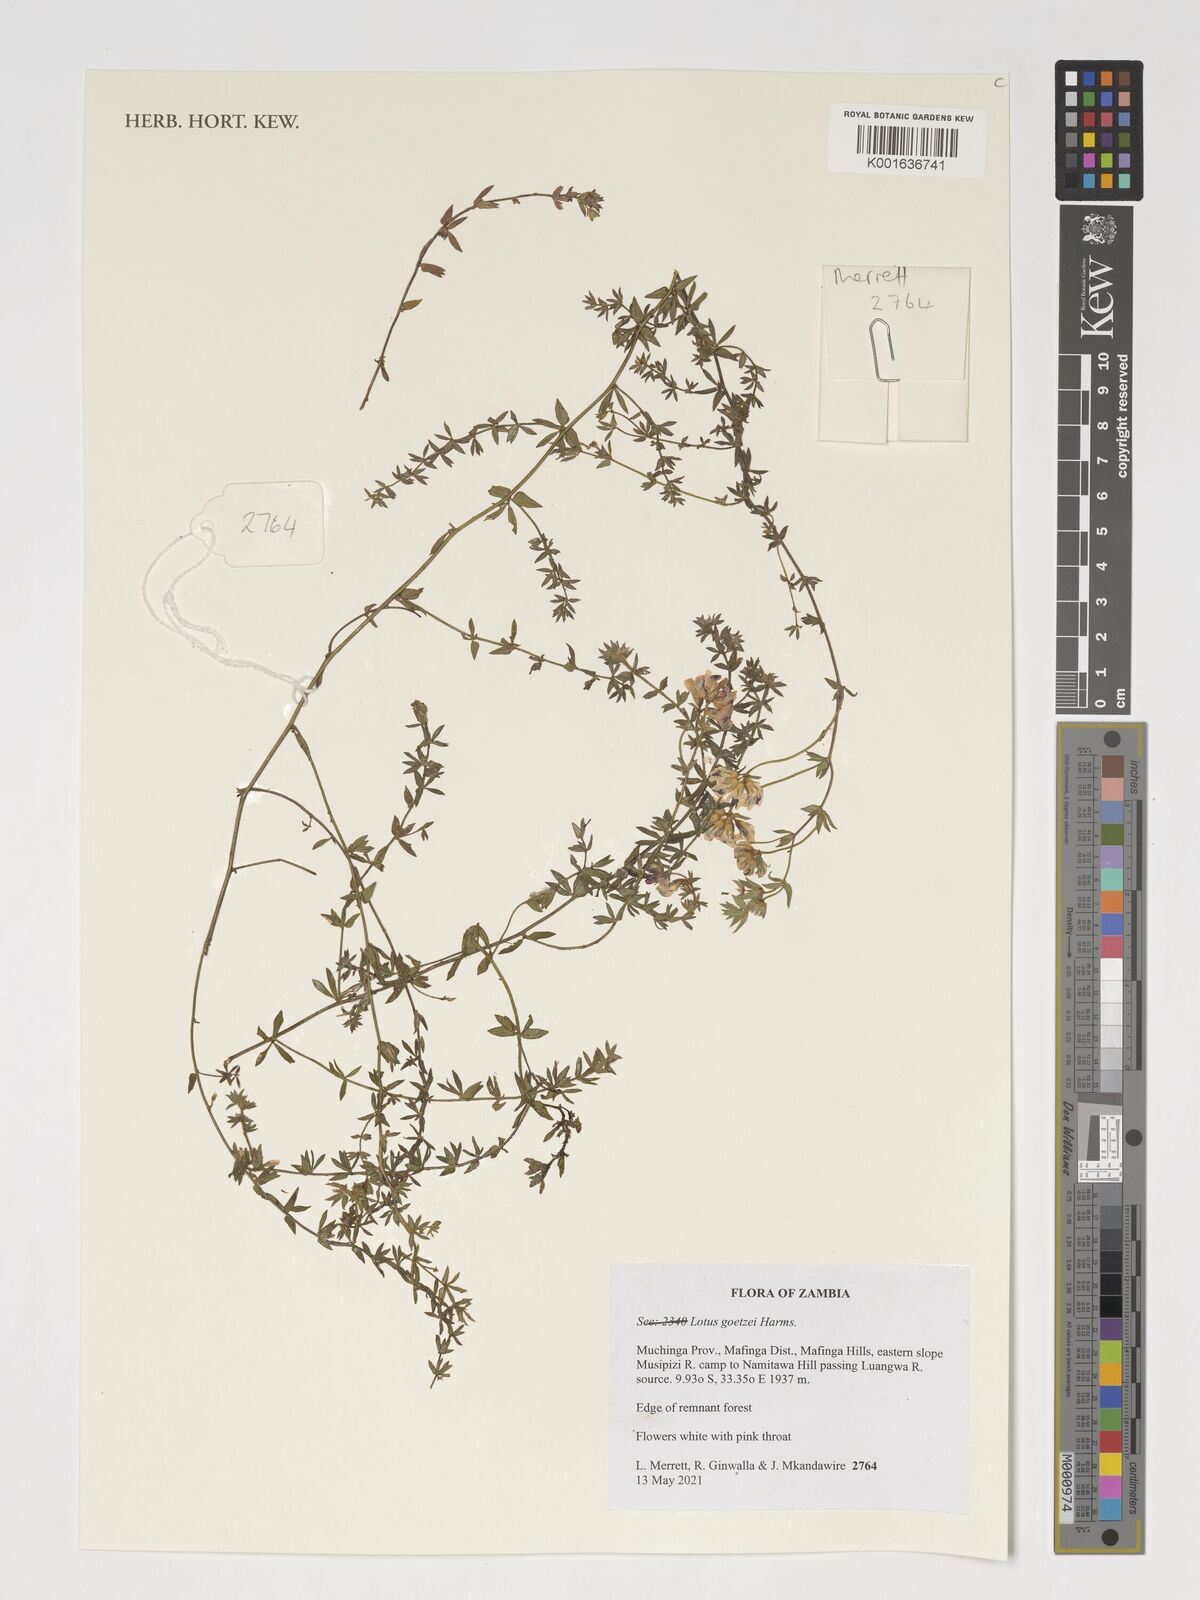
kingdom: Plantae
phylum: Tracheophyta
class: Magnoliopsida
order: Fabales
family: Fabaceae
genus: Lotus
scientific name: Lotus goetzei
